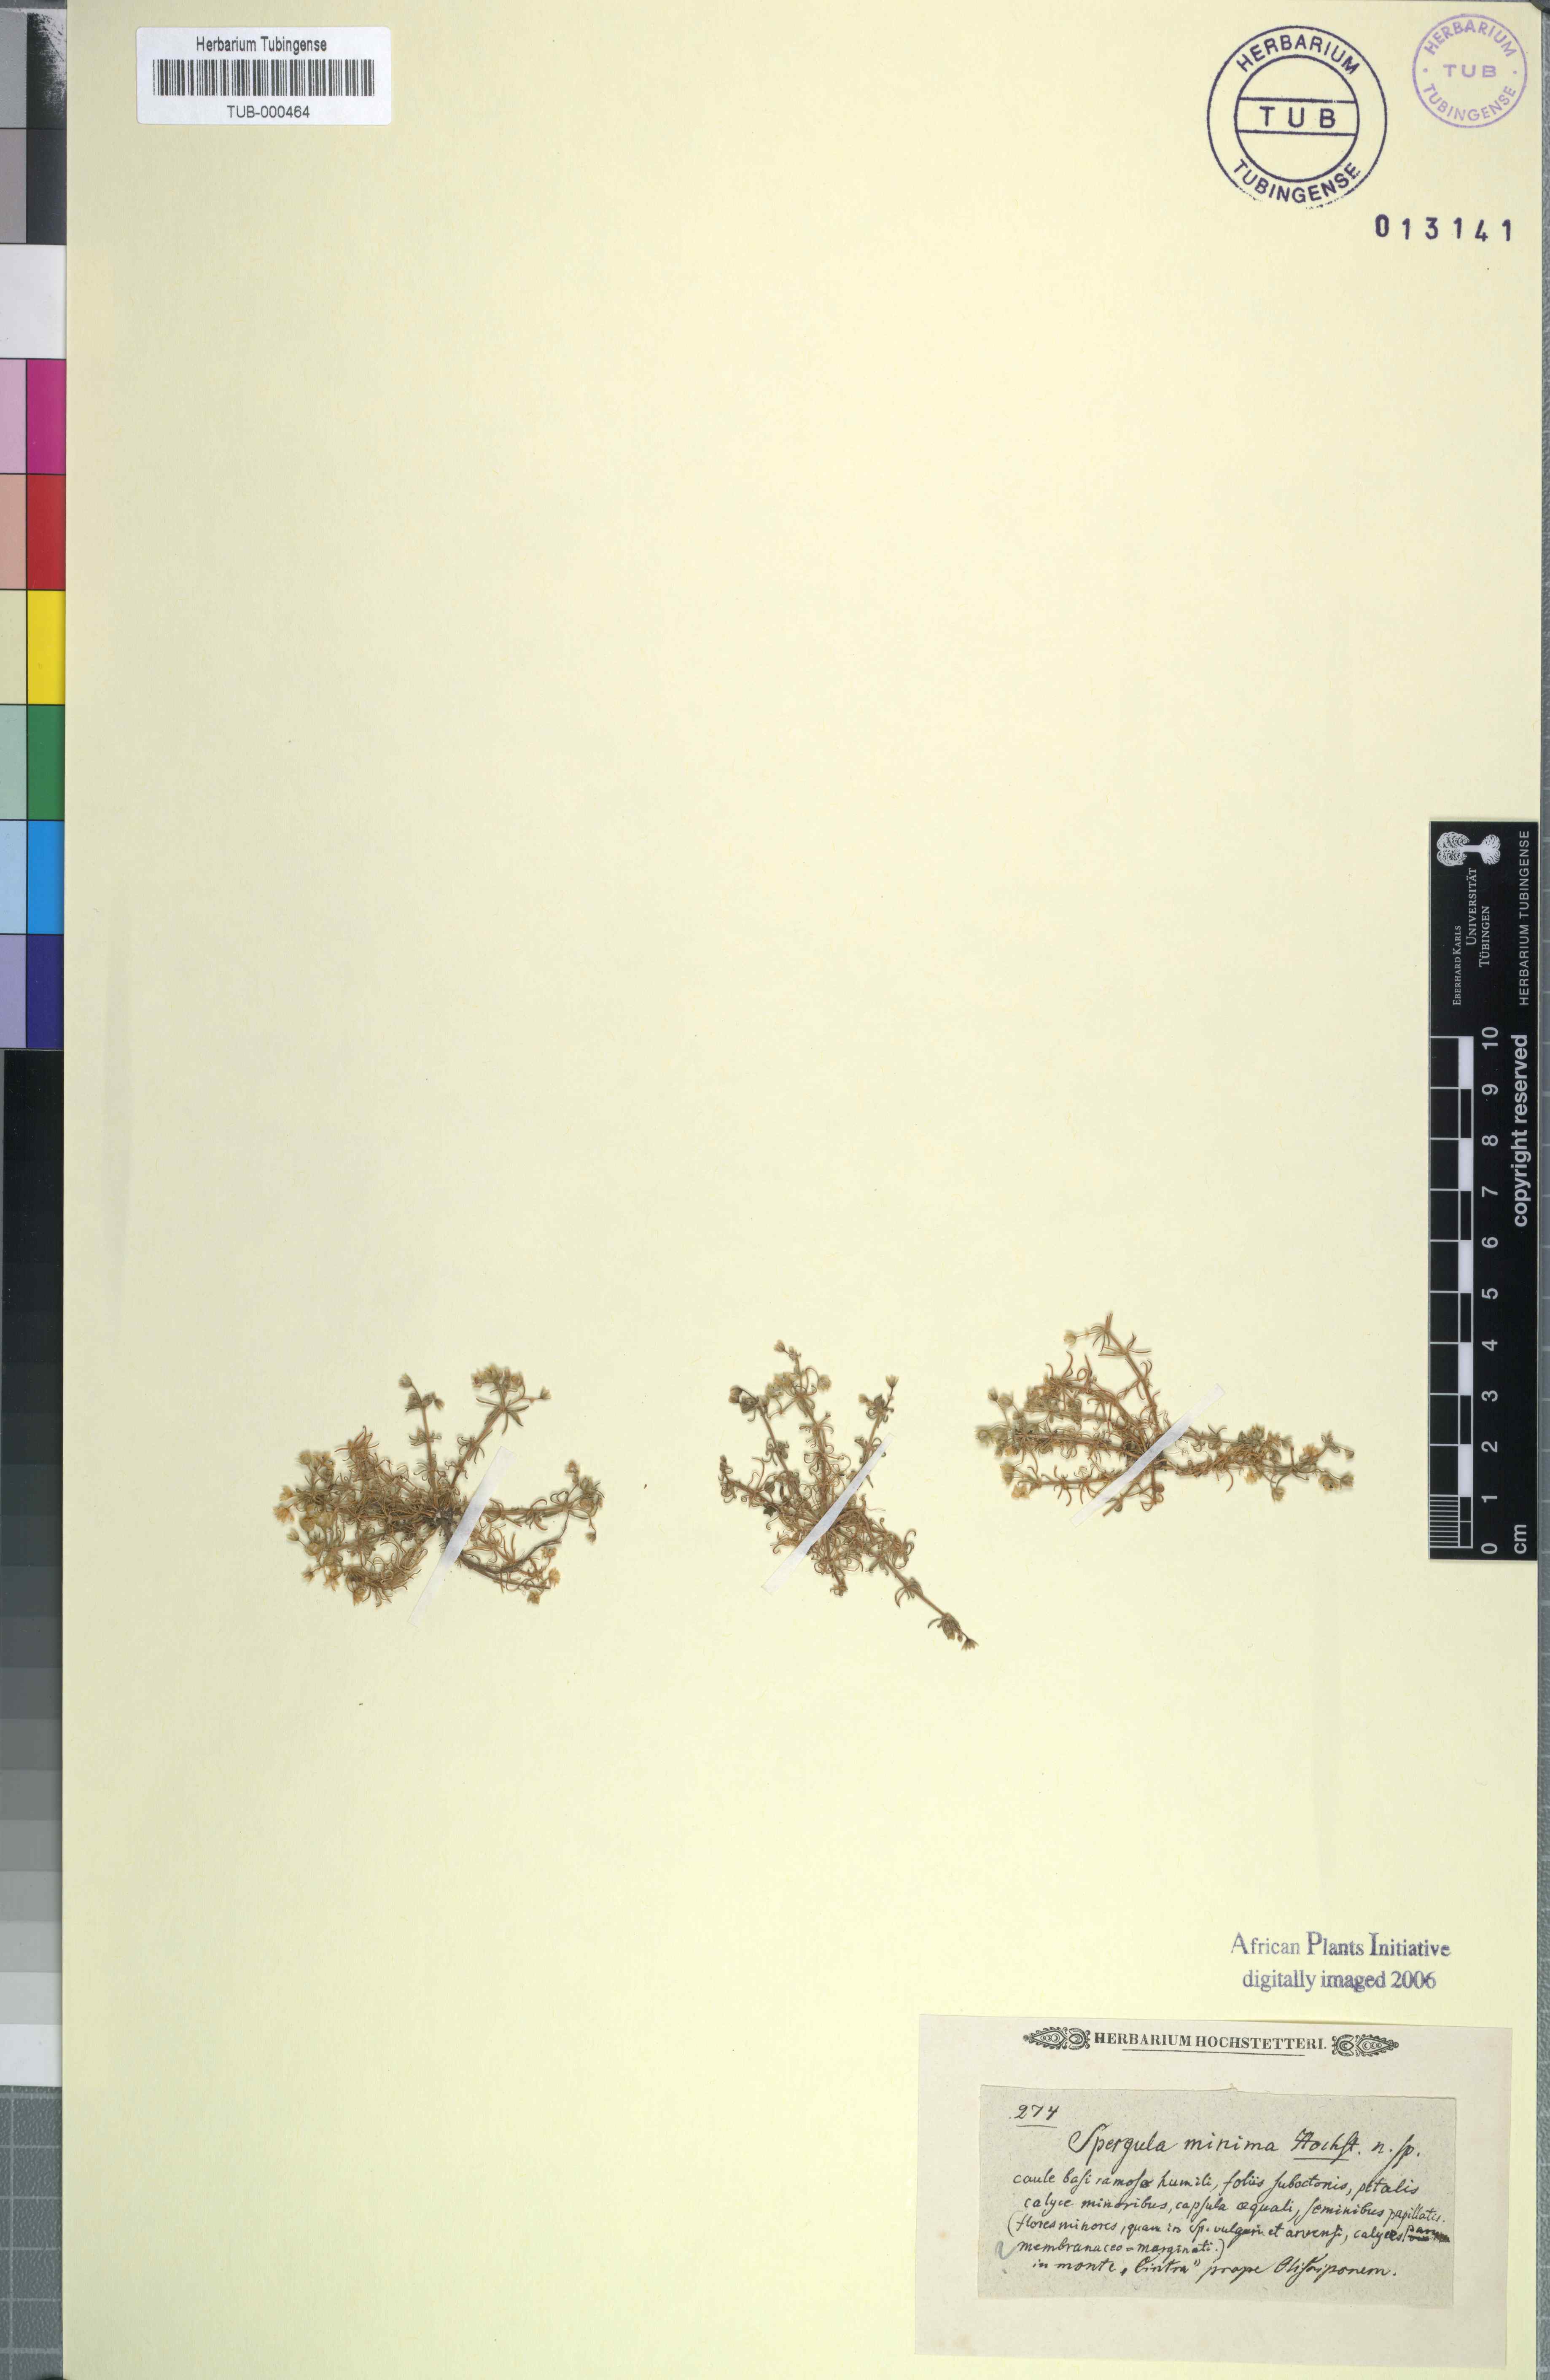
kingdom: Plantae
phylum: Tracheophyta
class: Magnoliopsida
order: Caryophyllales
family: Caryophyllaceae
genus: Spergula
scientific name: Spergula
